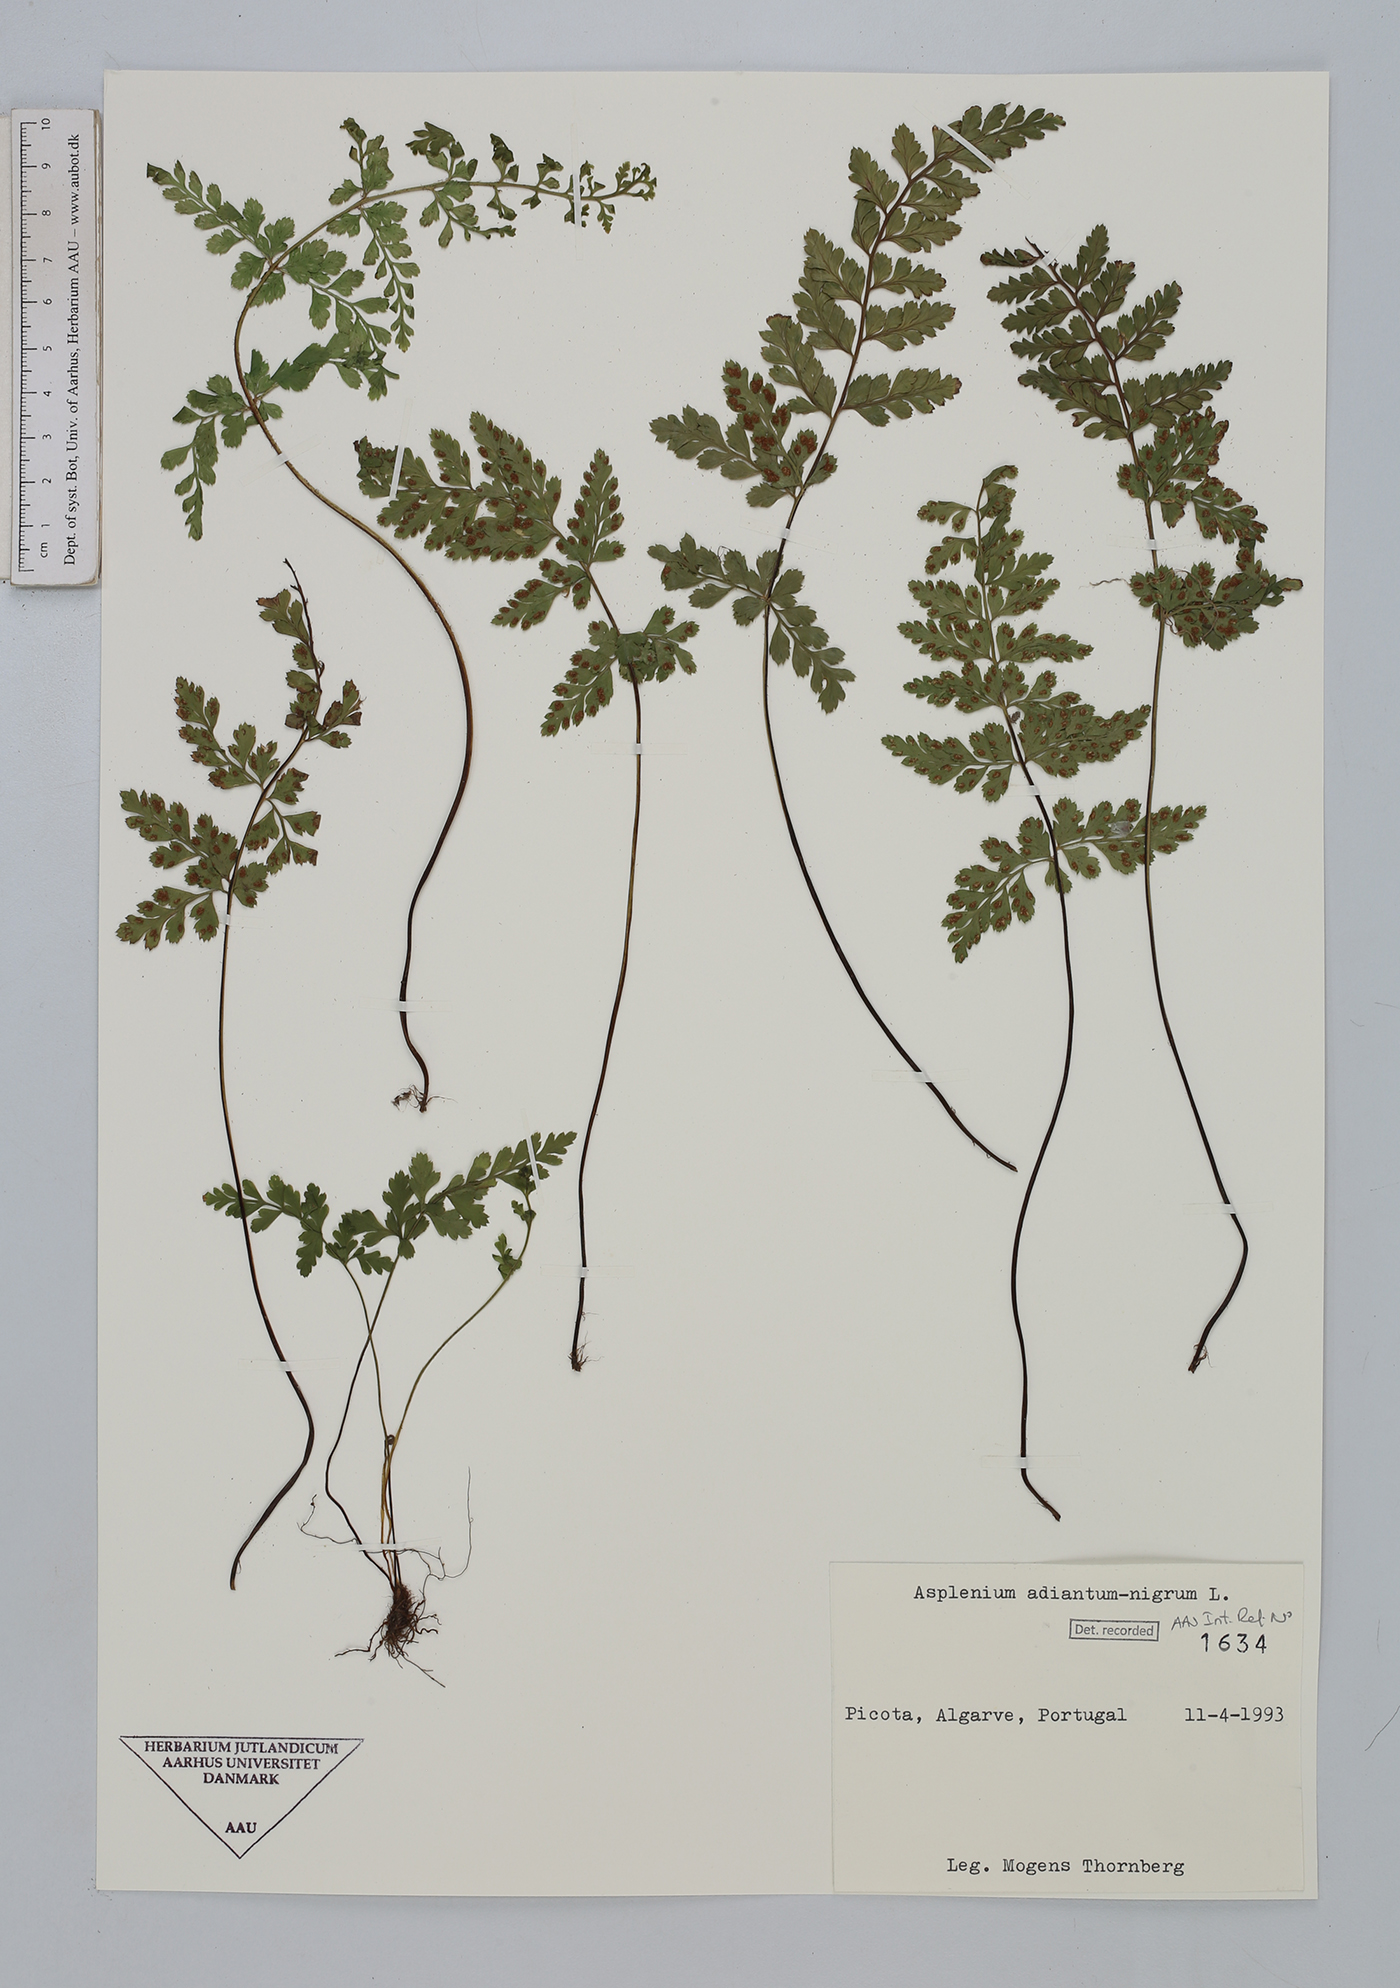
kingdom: Plantae
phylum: Tracheophyta
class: Polypodiopsida
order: Polypodiales
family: Aspleniaceae
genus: Asplenium
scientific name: Asplenium adiantum-nigrum
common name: Black spleenwort
